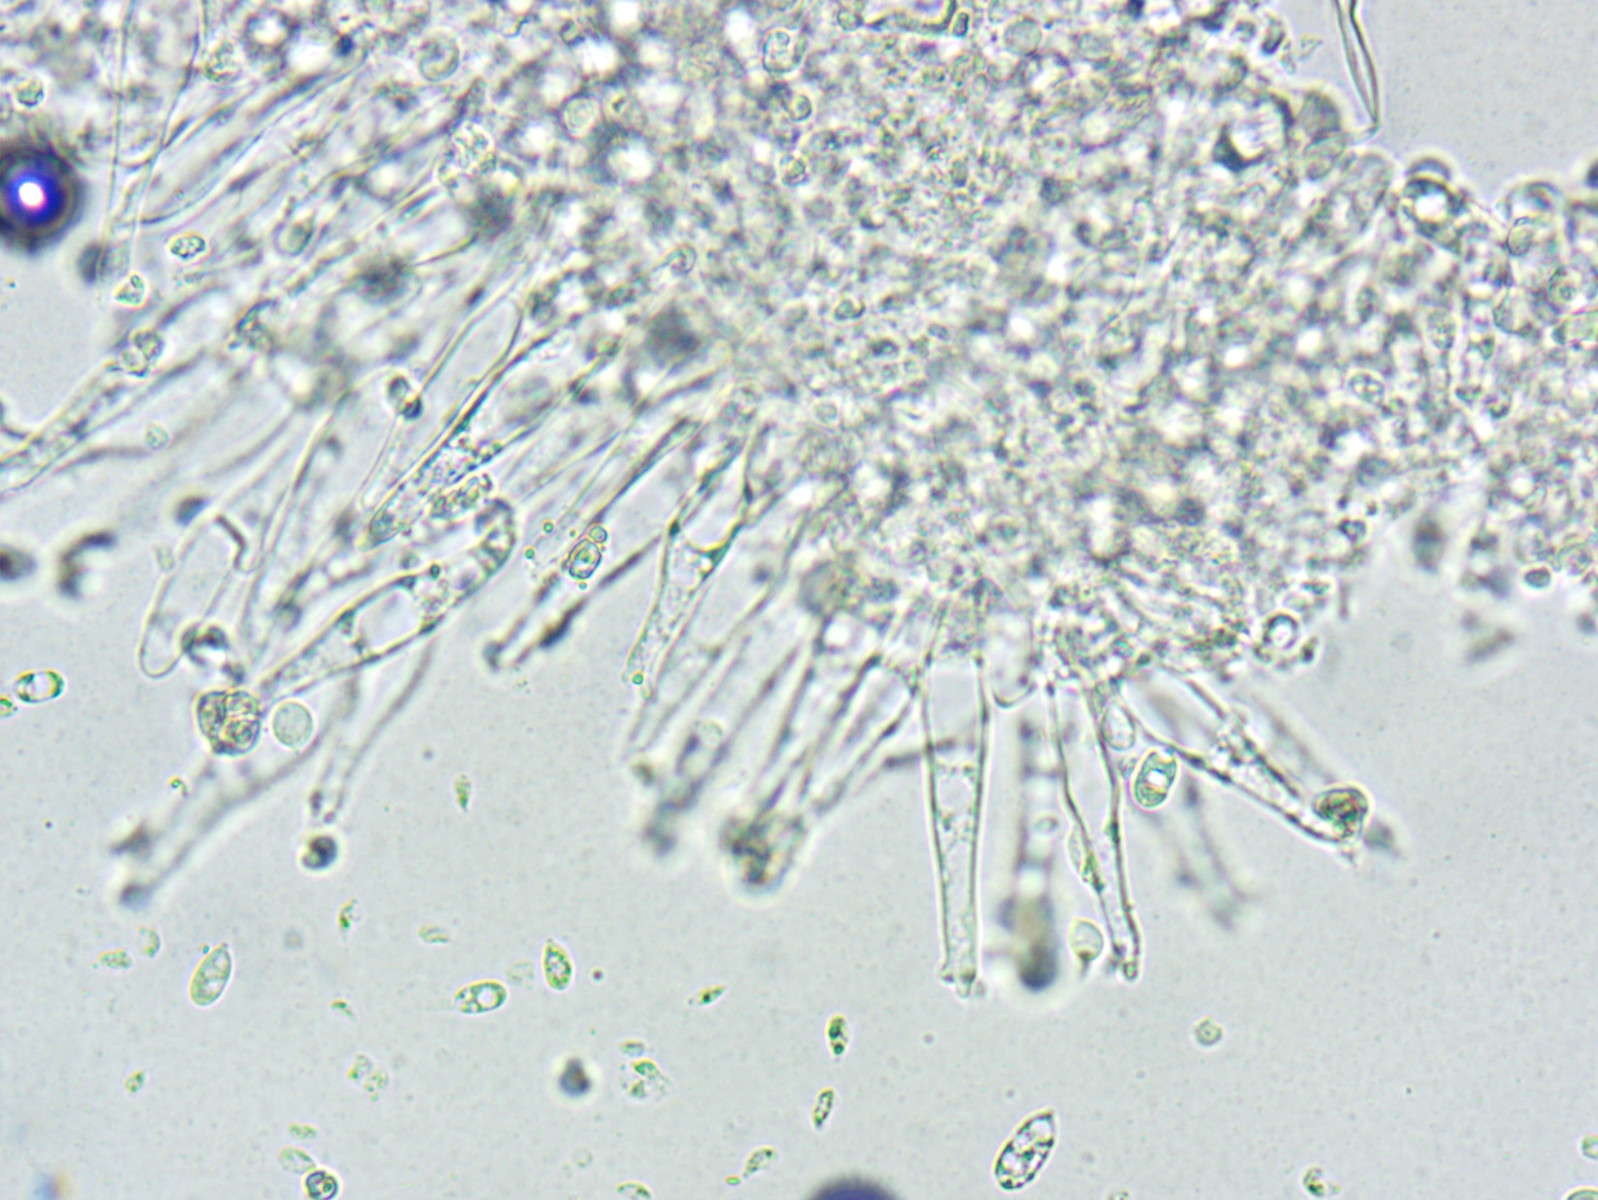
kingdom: Fungi
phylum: Basidiomycota
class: Agaricomycetes
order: Agaricales
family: Mycenaceae
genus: Mycena
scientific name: Mycena galopus
